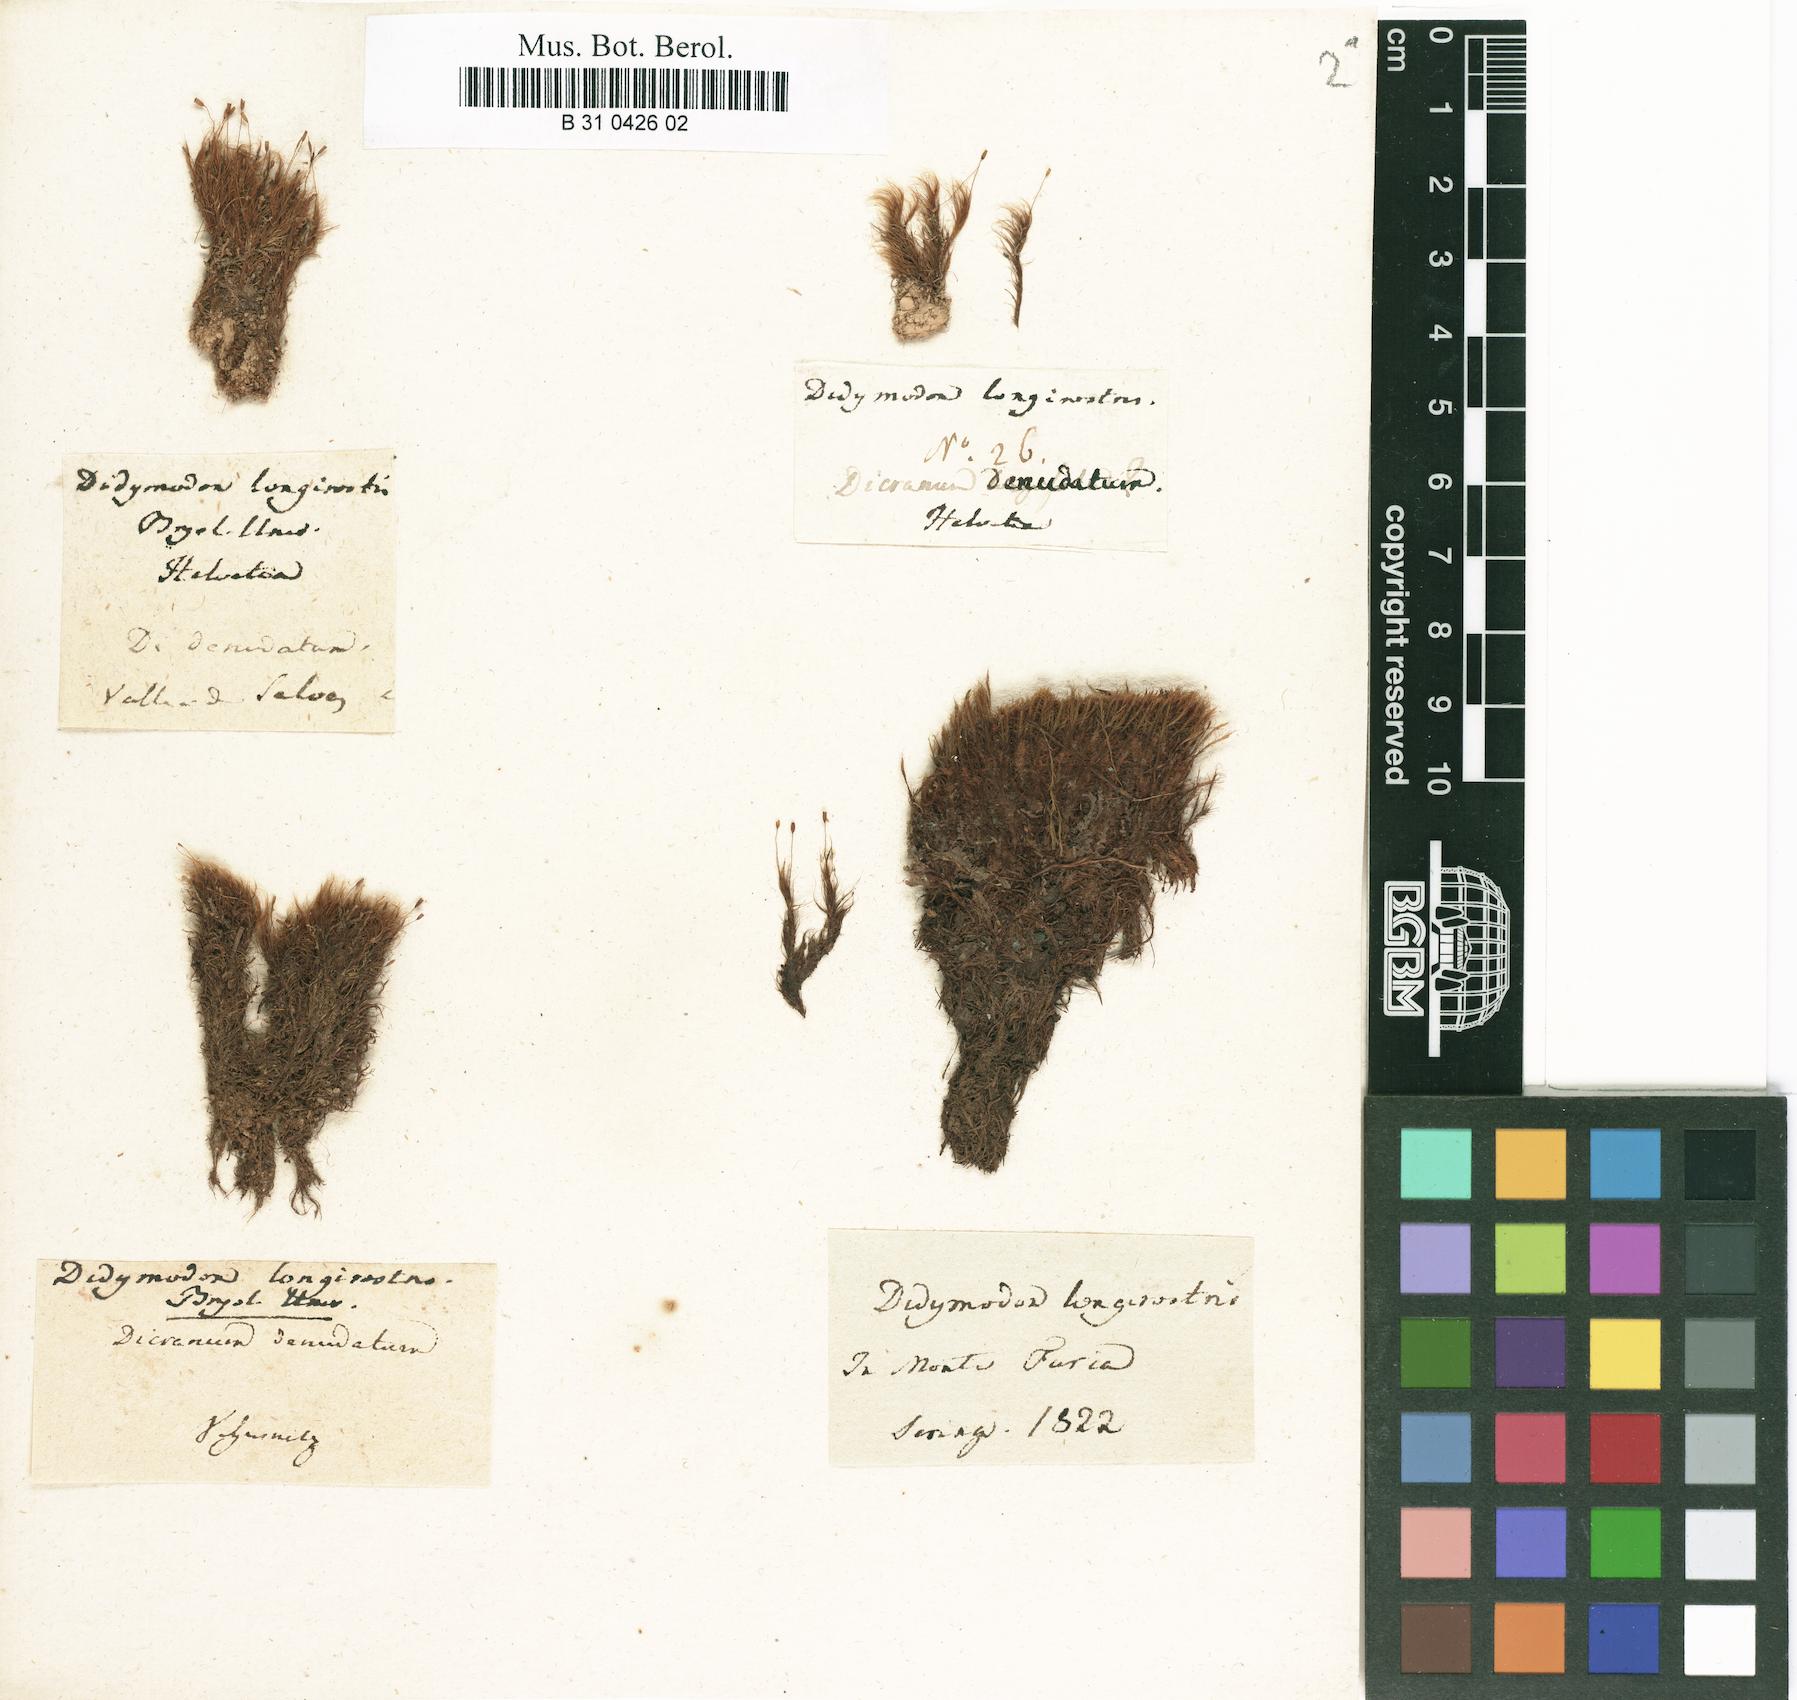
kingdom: Plantae
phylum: Bryophyta
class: Bryopsida
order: Dicranales
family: Leucobryaceae
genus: Dicranodontium
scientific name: Dicranodontium denudatum
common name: Beaked bow moss
